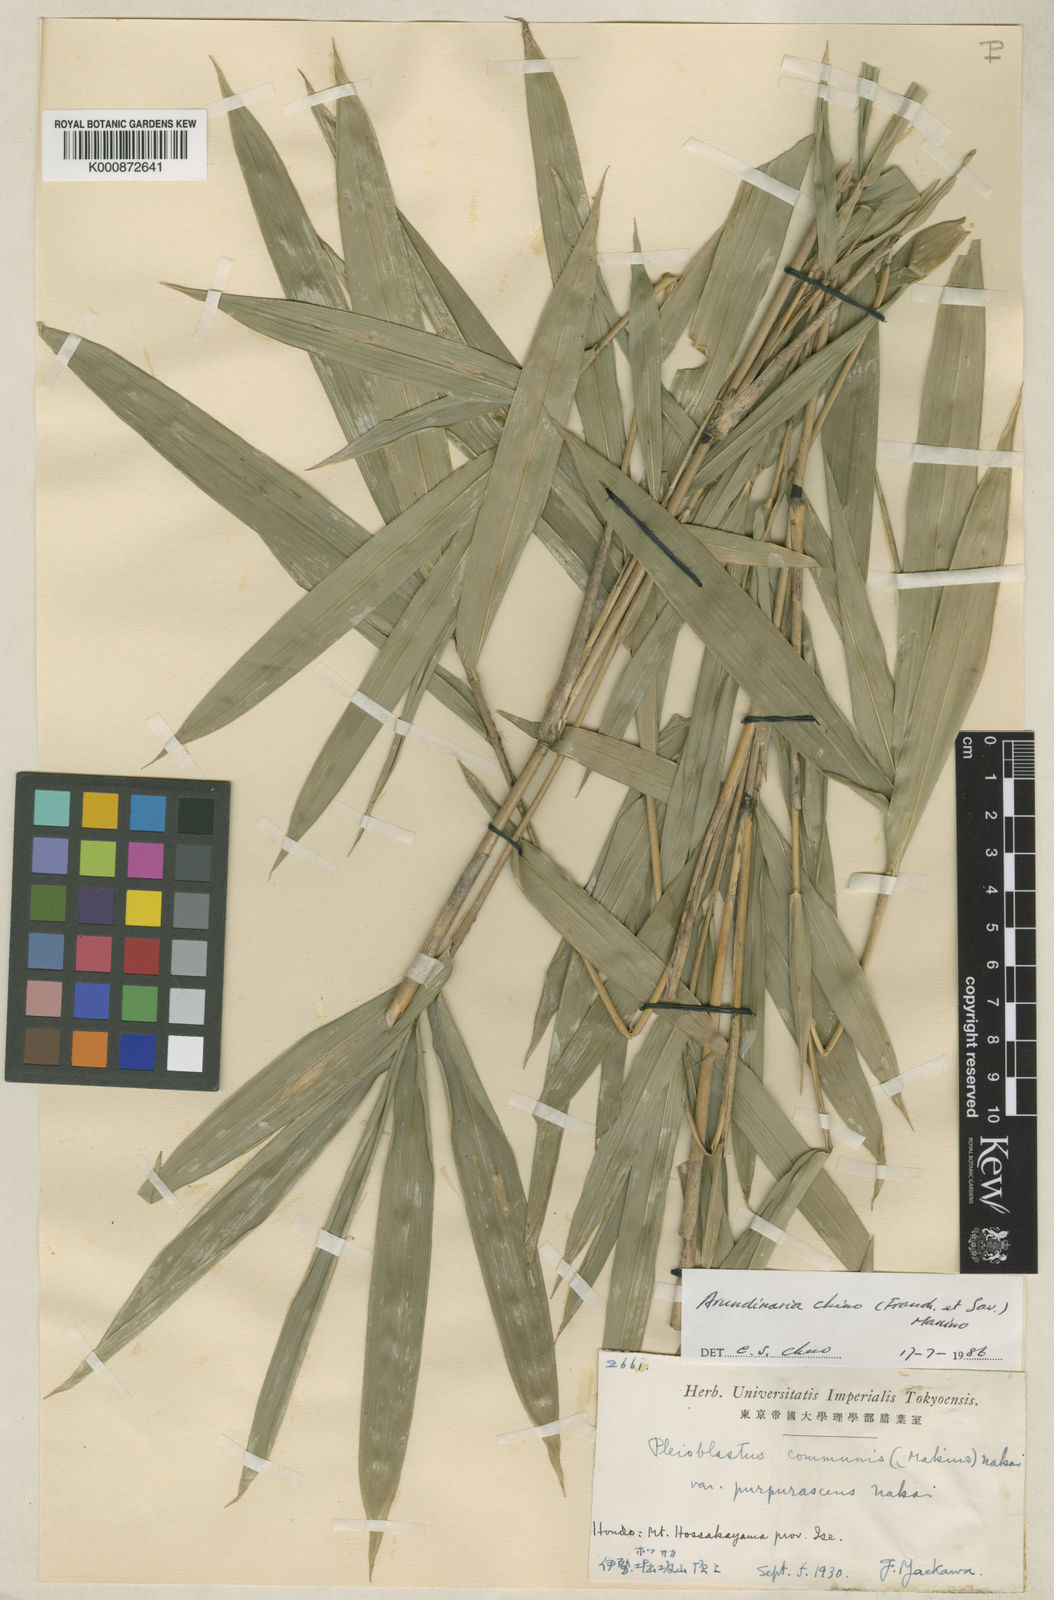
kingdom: Plantae
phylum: Tracheophyta
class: Liliopsida
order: Poales
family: Poaceae
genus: Pleioblastus
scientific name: Pleioblastus argenteostriatus
